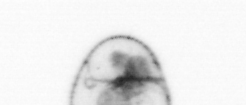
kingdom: Chromista
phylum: Myzozoa
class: Dinophyceae
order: Noctilucales
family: Noctilucaceae
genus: Noctiluca
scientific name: Noctiluca scintillans
